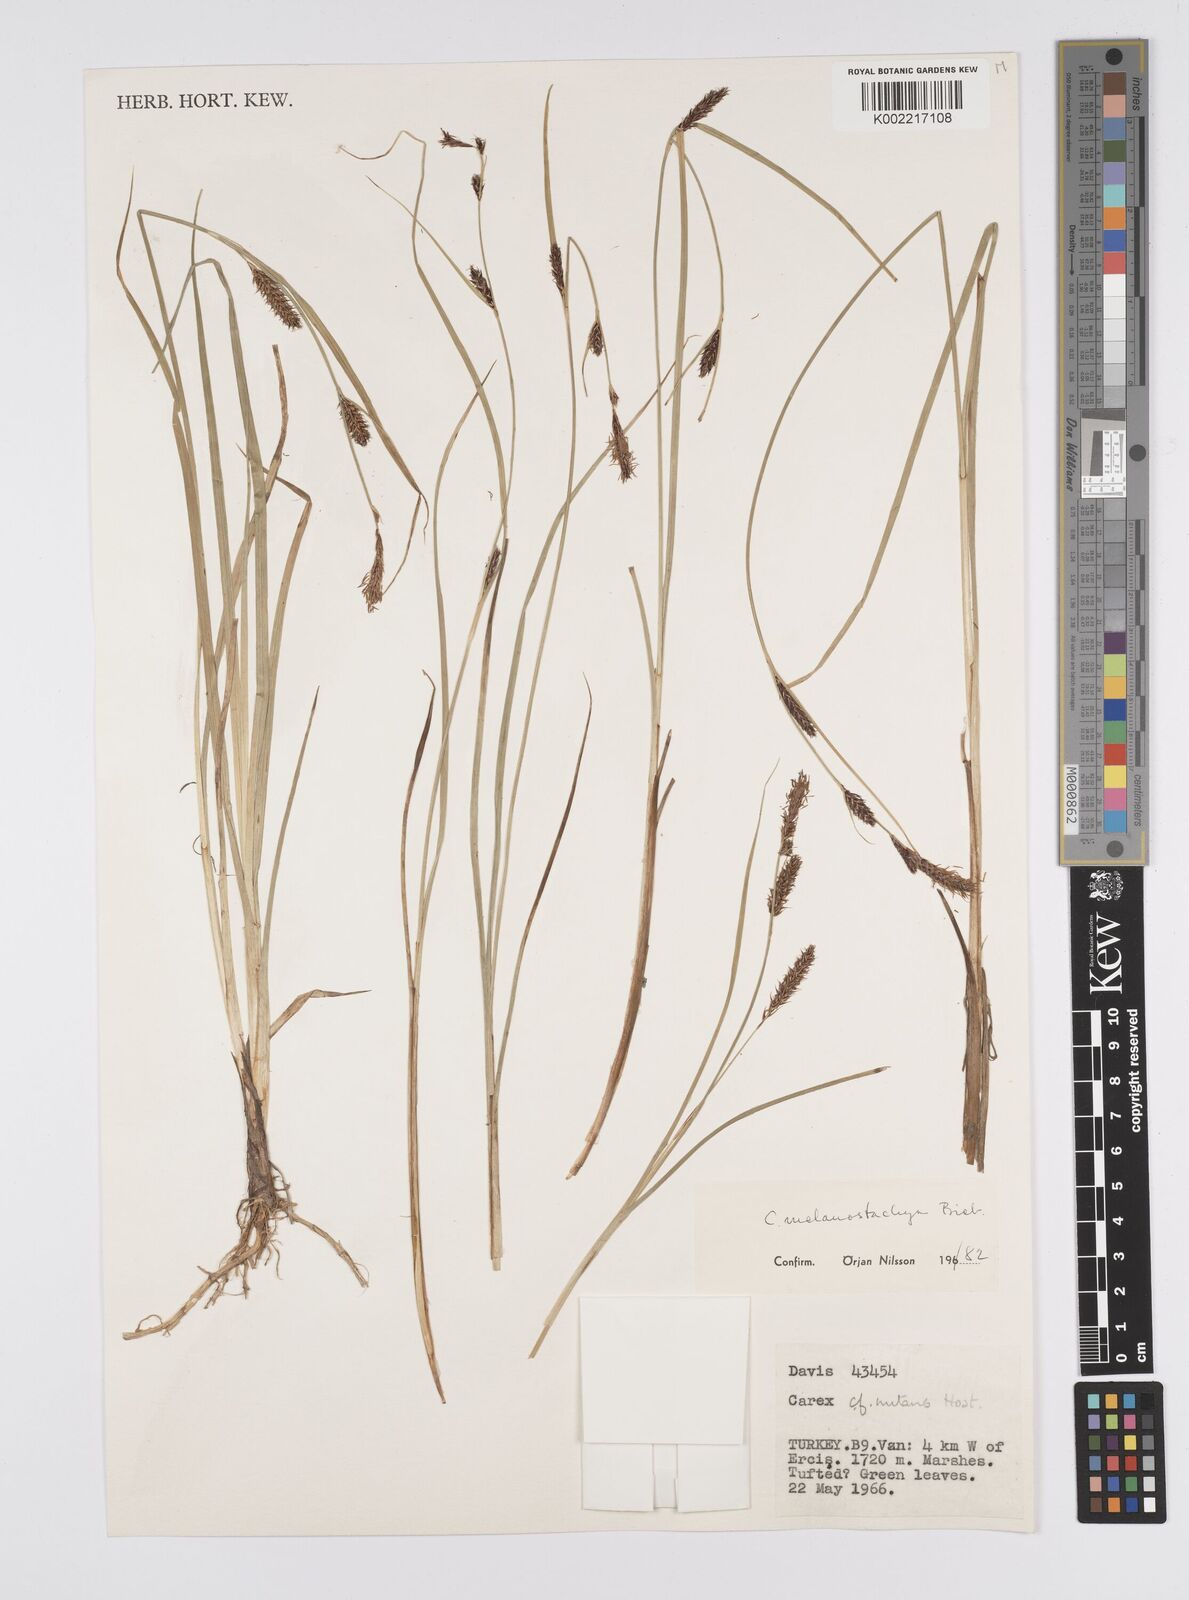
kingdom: Plantae
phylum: Tracheophyta
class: Liliopsida
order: Poales
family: Cyperaceae
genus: Carex
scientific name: Carex melanostachya
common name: Black-spiked sedge
